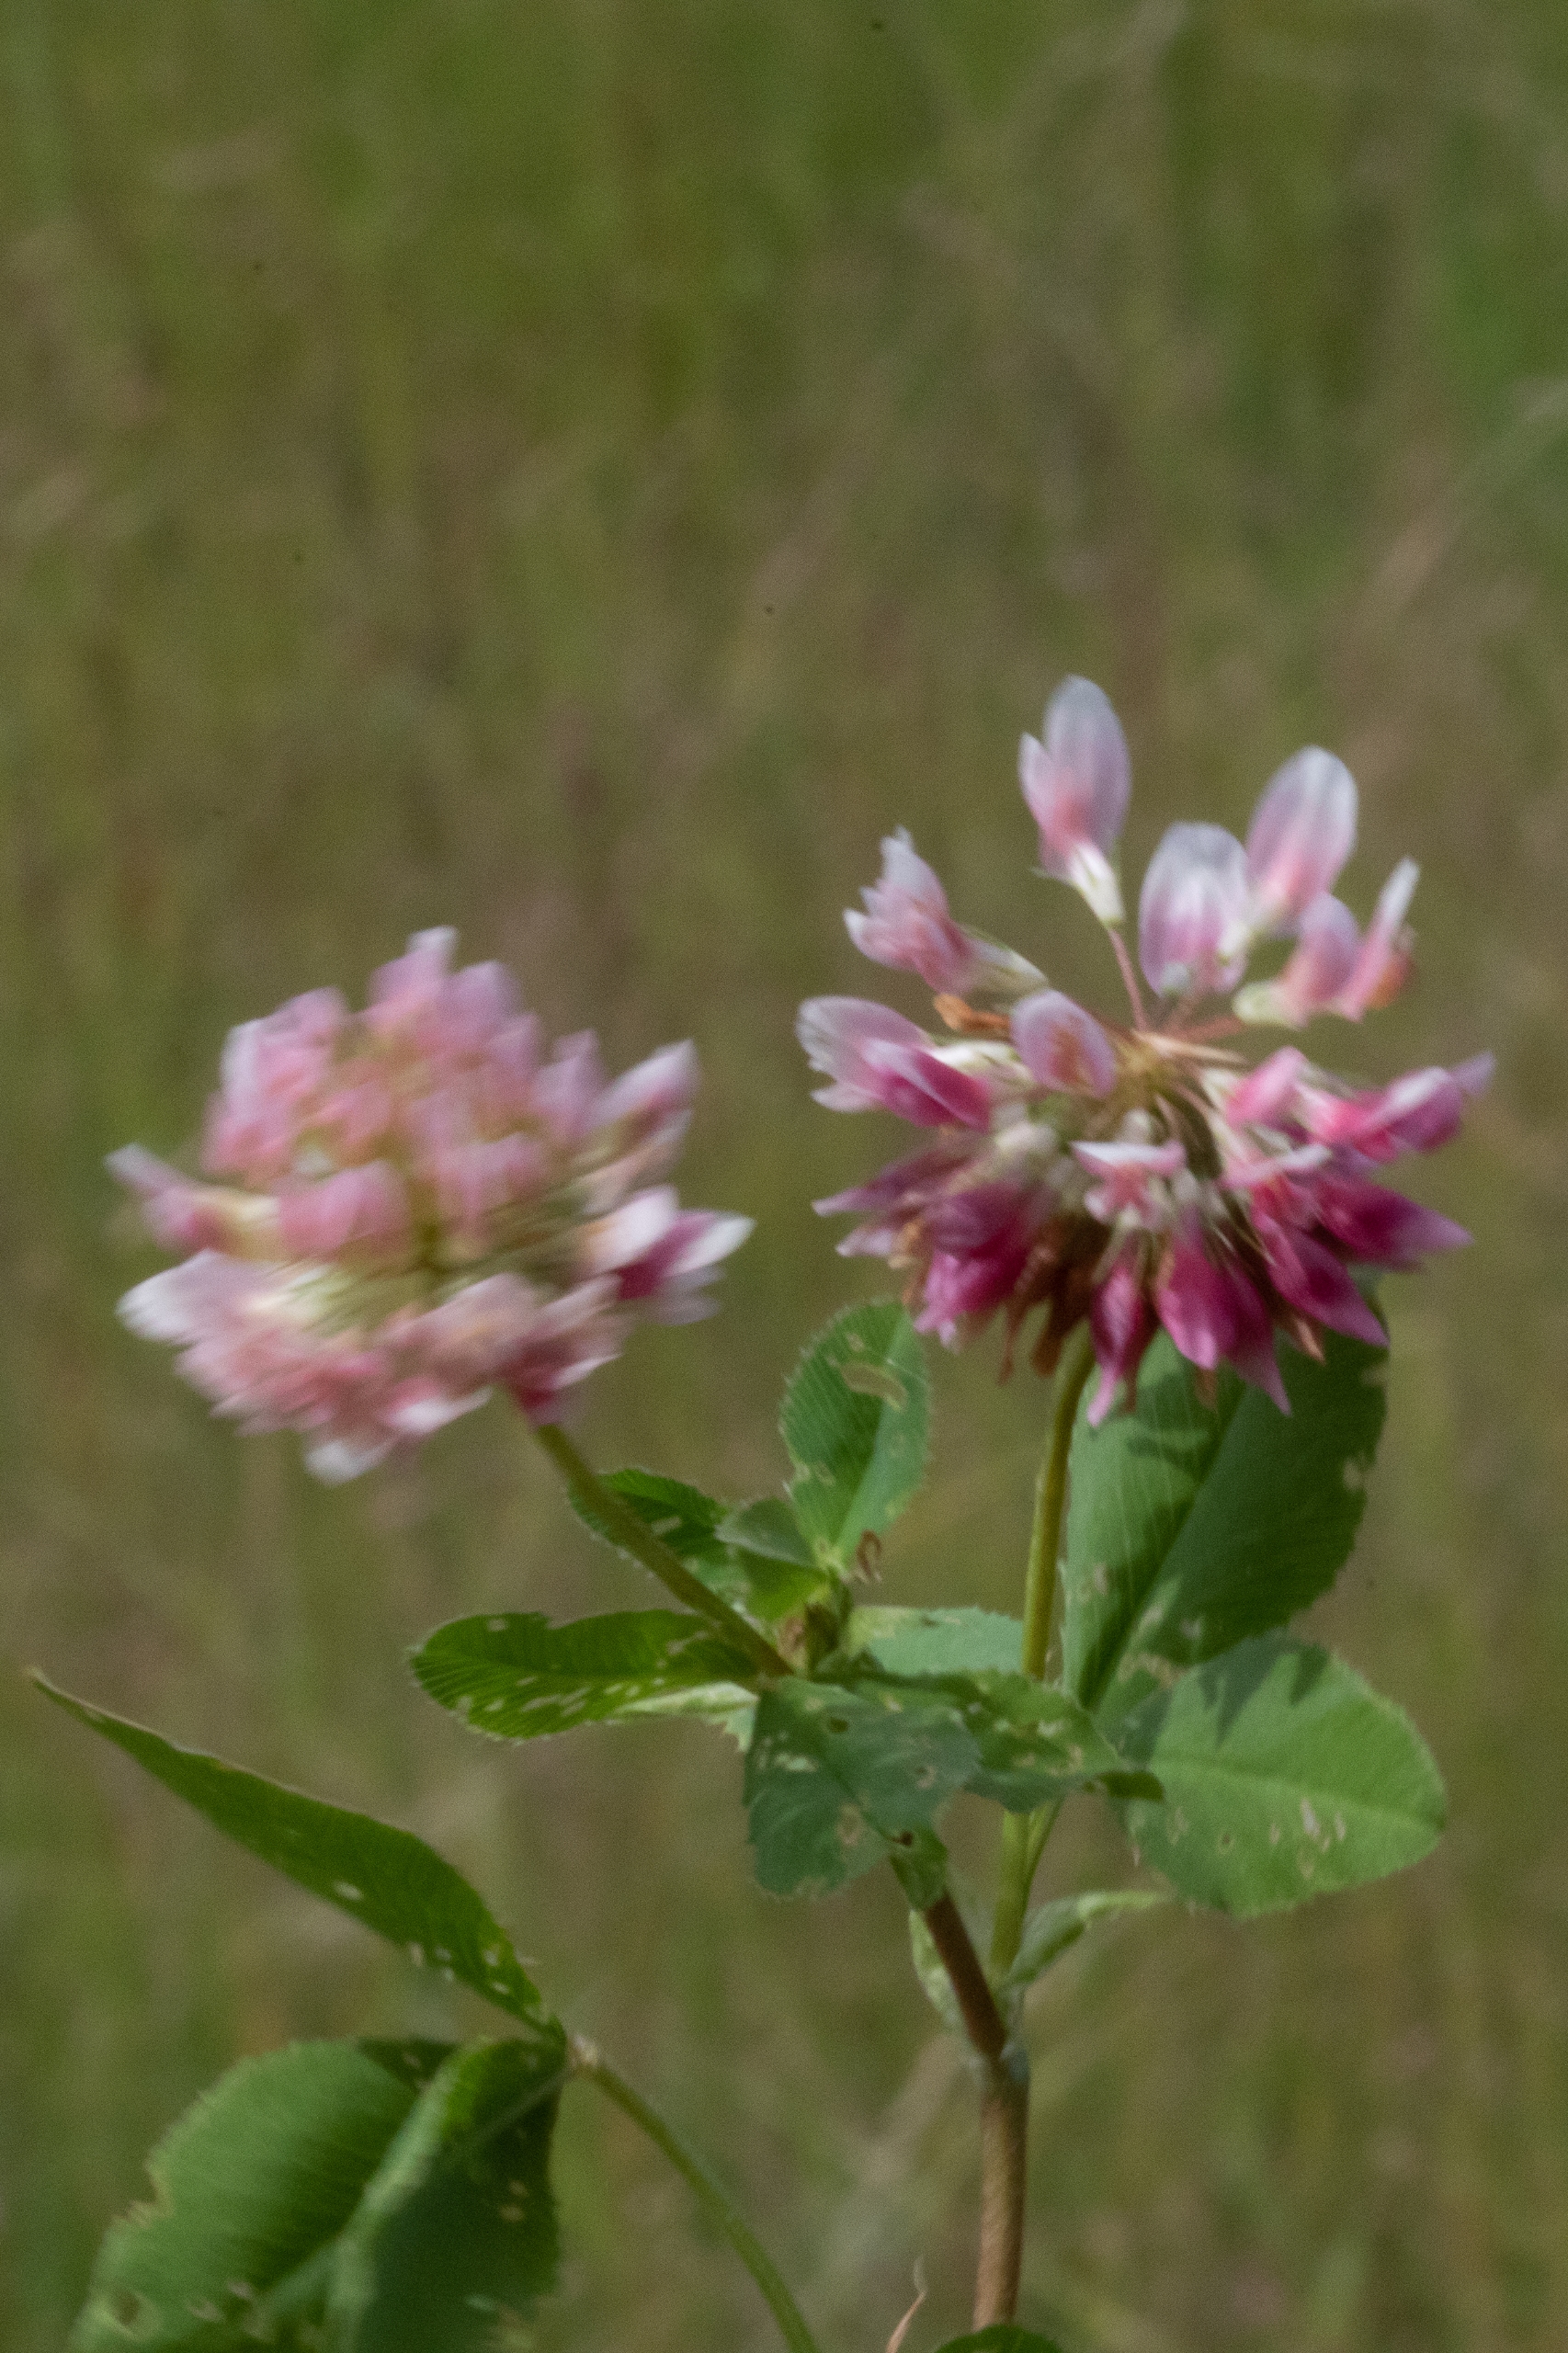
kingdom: Plantae
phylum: Tracheophyta
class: Magnoliopsida
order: Fabales
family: Fabaceae
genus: Trifolium
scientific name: Trifolium hybridum
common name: Alsike-kløver
